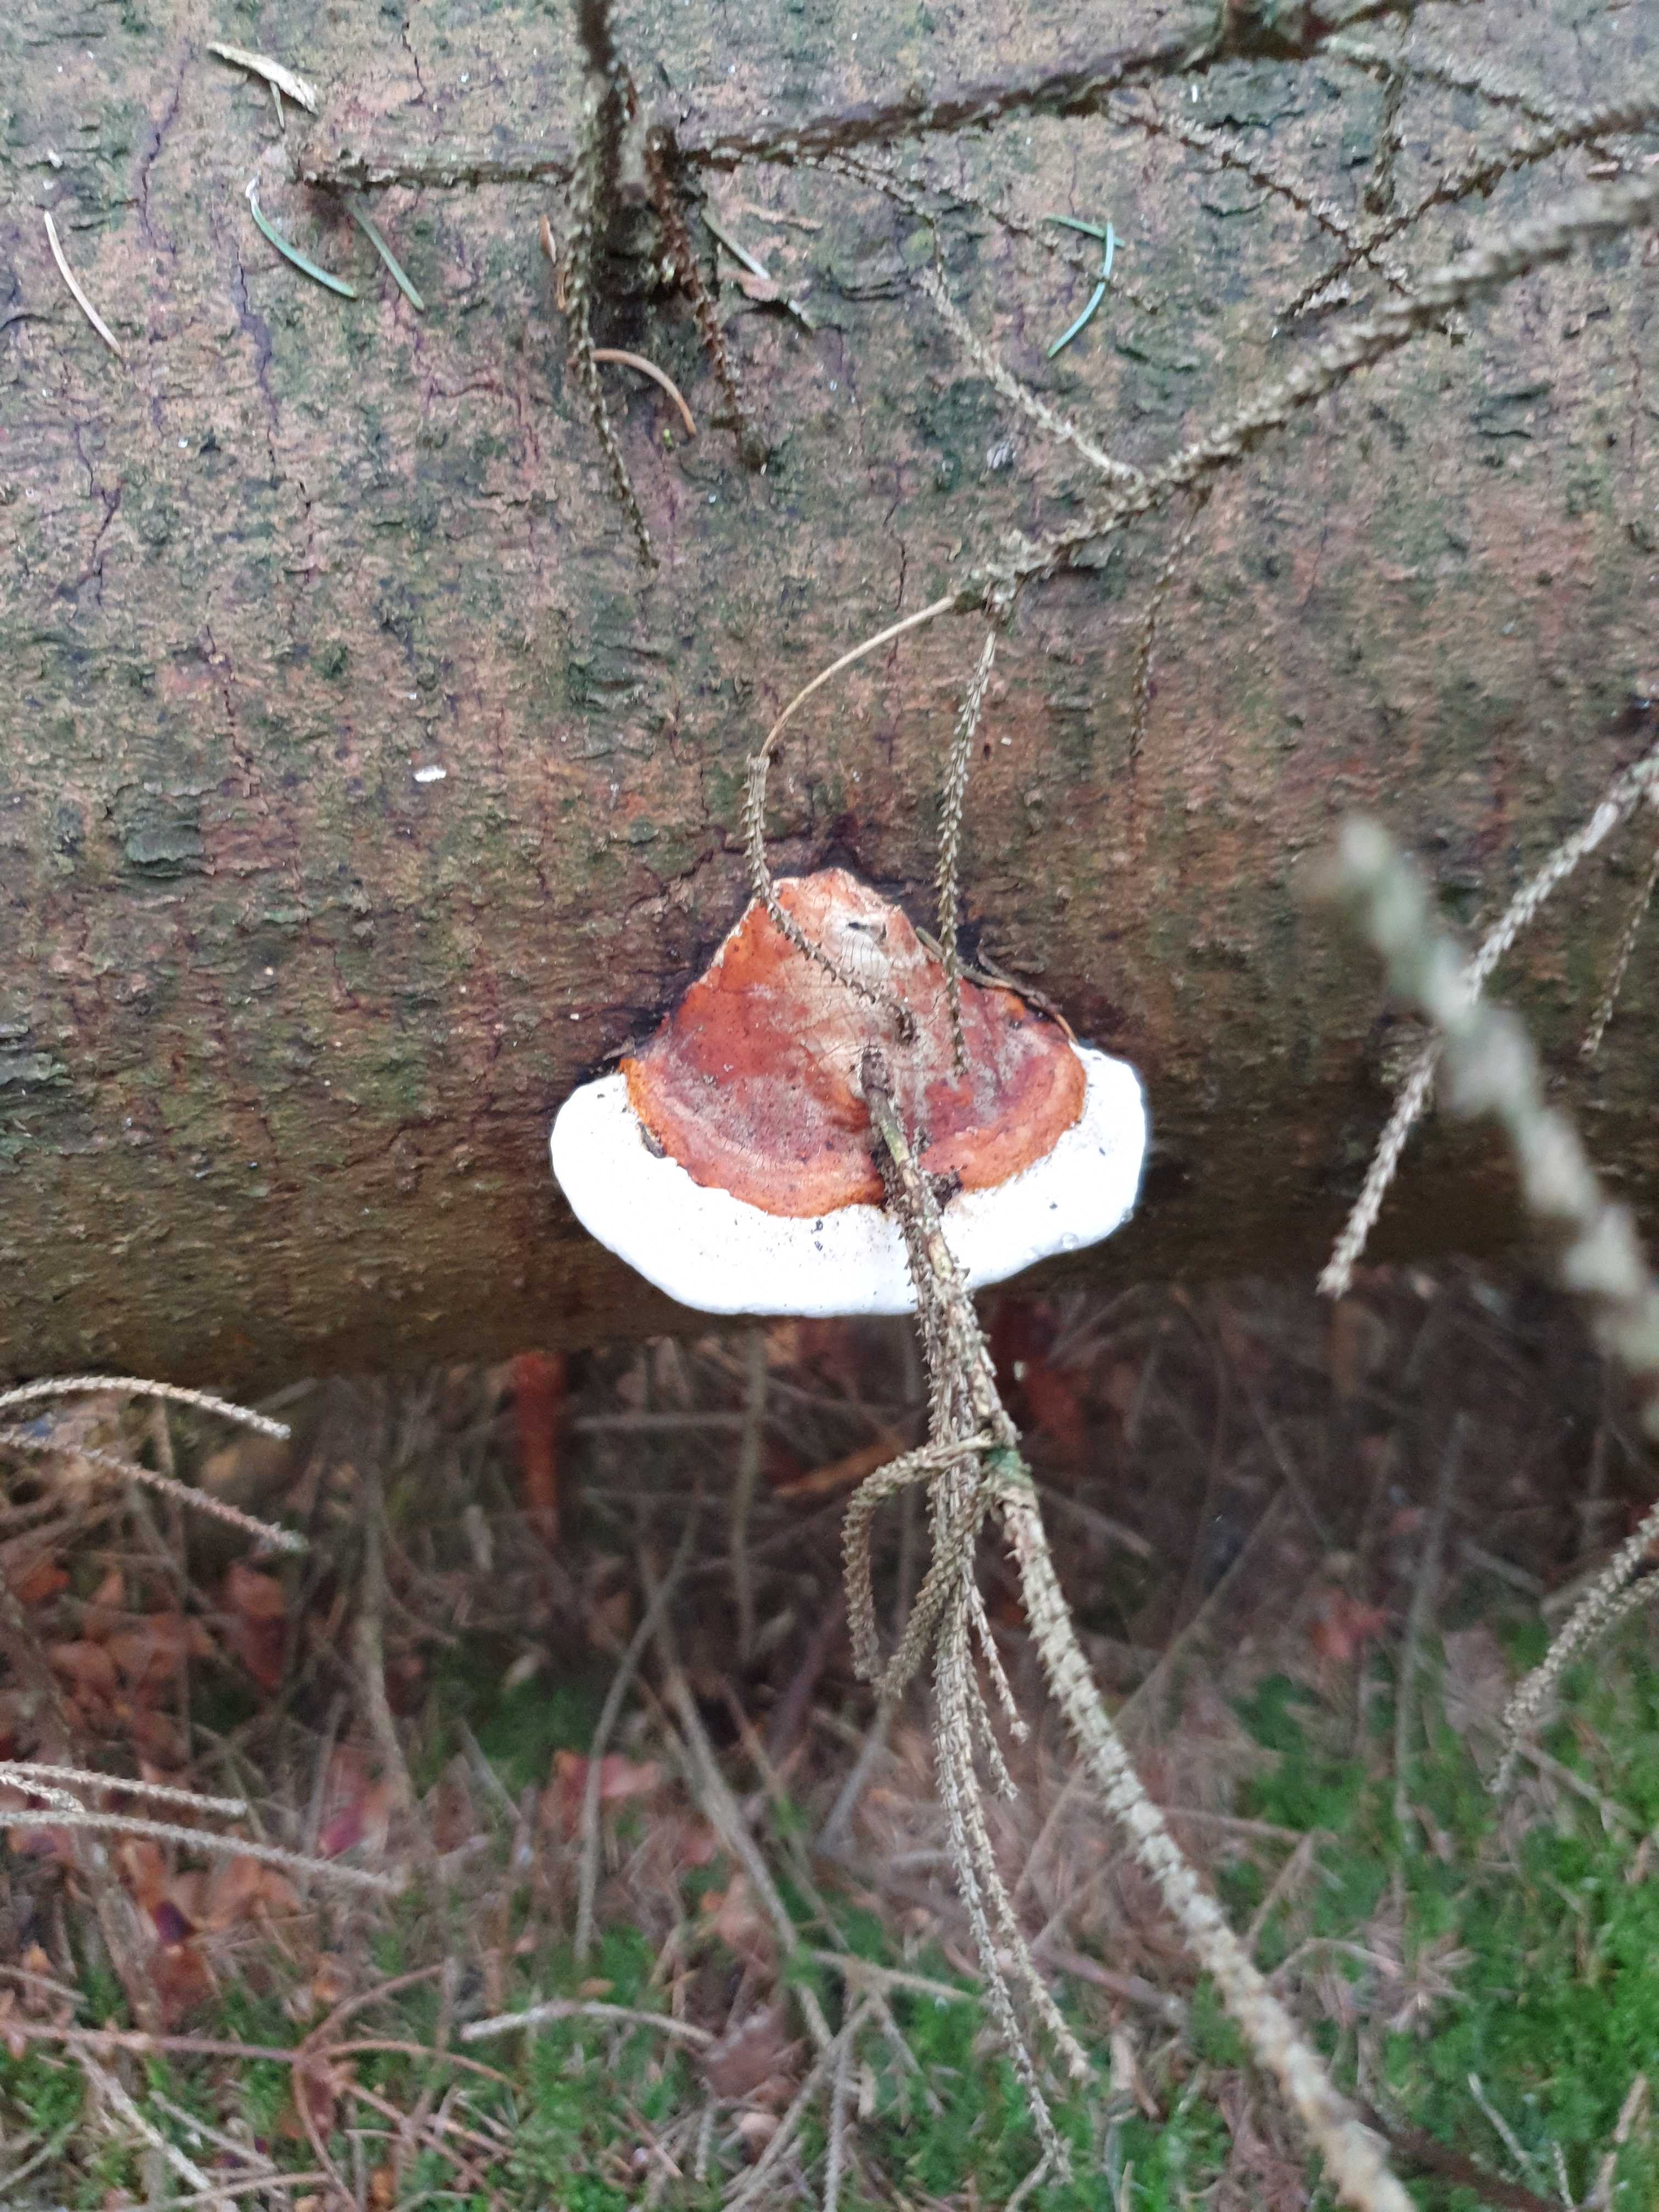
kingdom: Fungi
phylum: Basidiomycota
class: Agaricomycetes
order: Polyporales
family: Fomitopsidaceae
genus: Fomitopsis
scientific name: Fomitopsis pinicola
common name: randbæltet hovporesvamp
